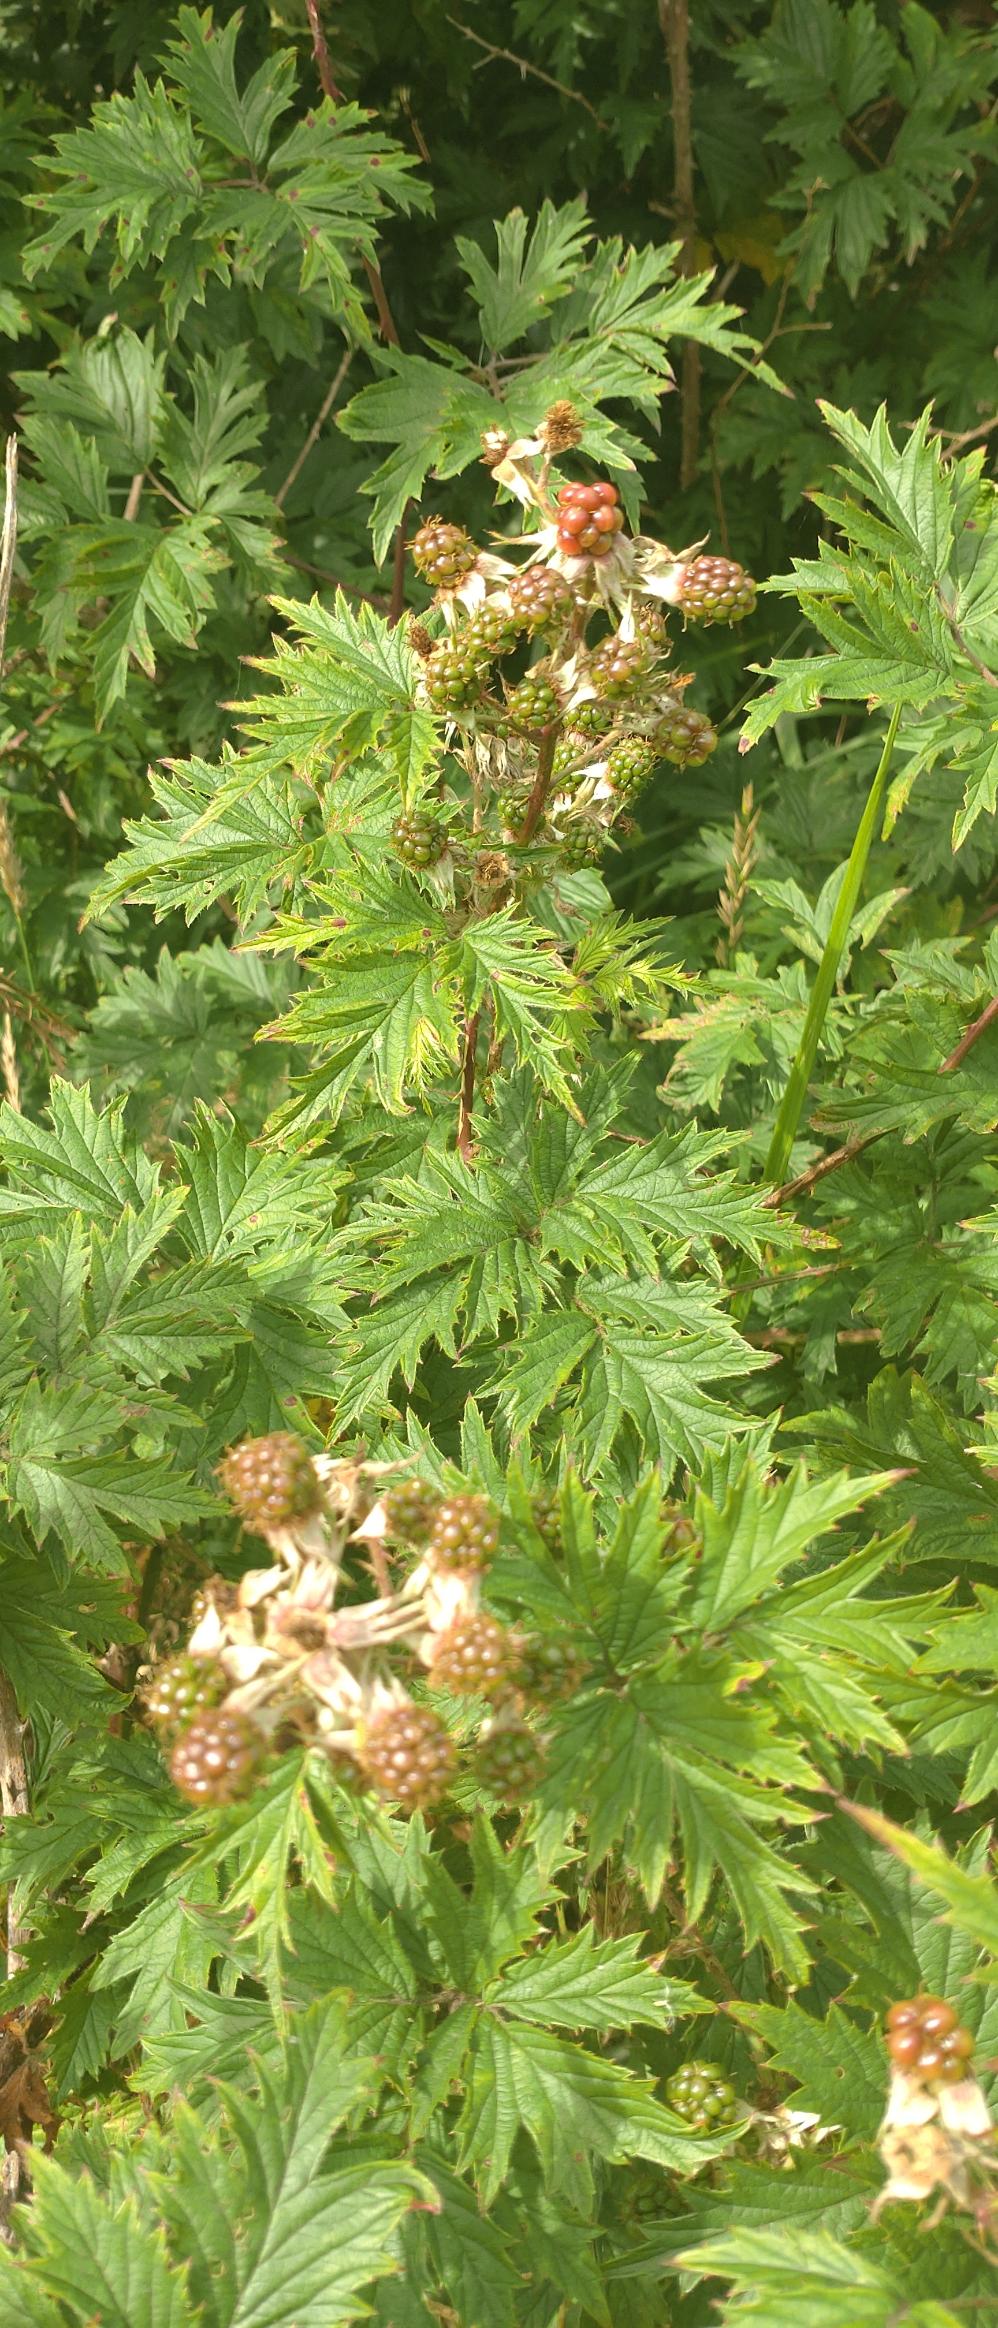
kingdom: Plantae
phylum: Tracheophyta
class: Magnoliopsida
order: Rosales
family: Rosaceae
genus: Rubus
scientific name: Rubus laciniatus
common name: Fliget brombær
